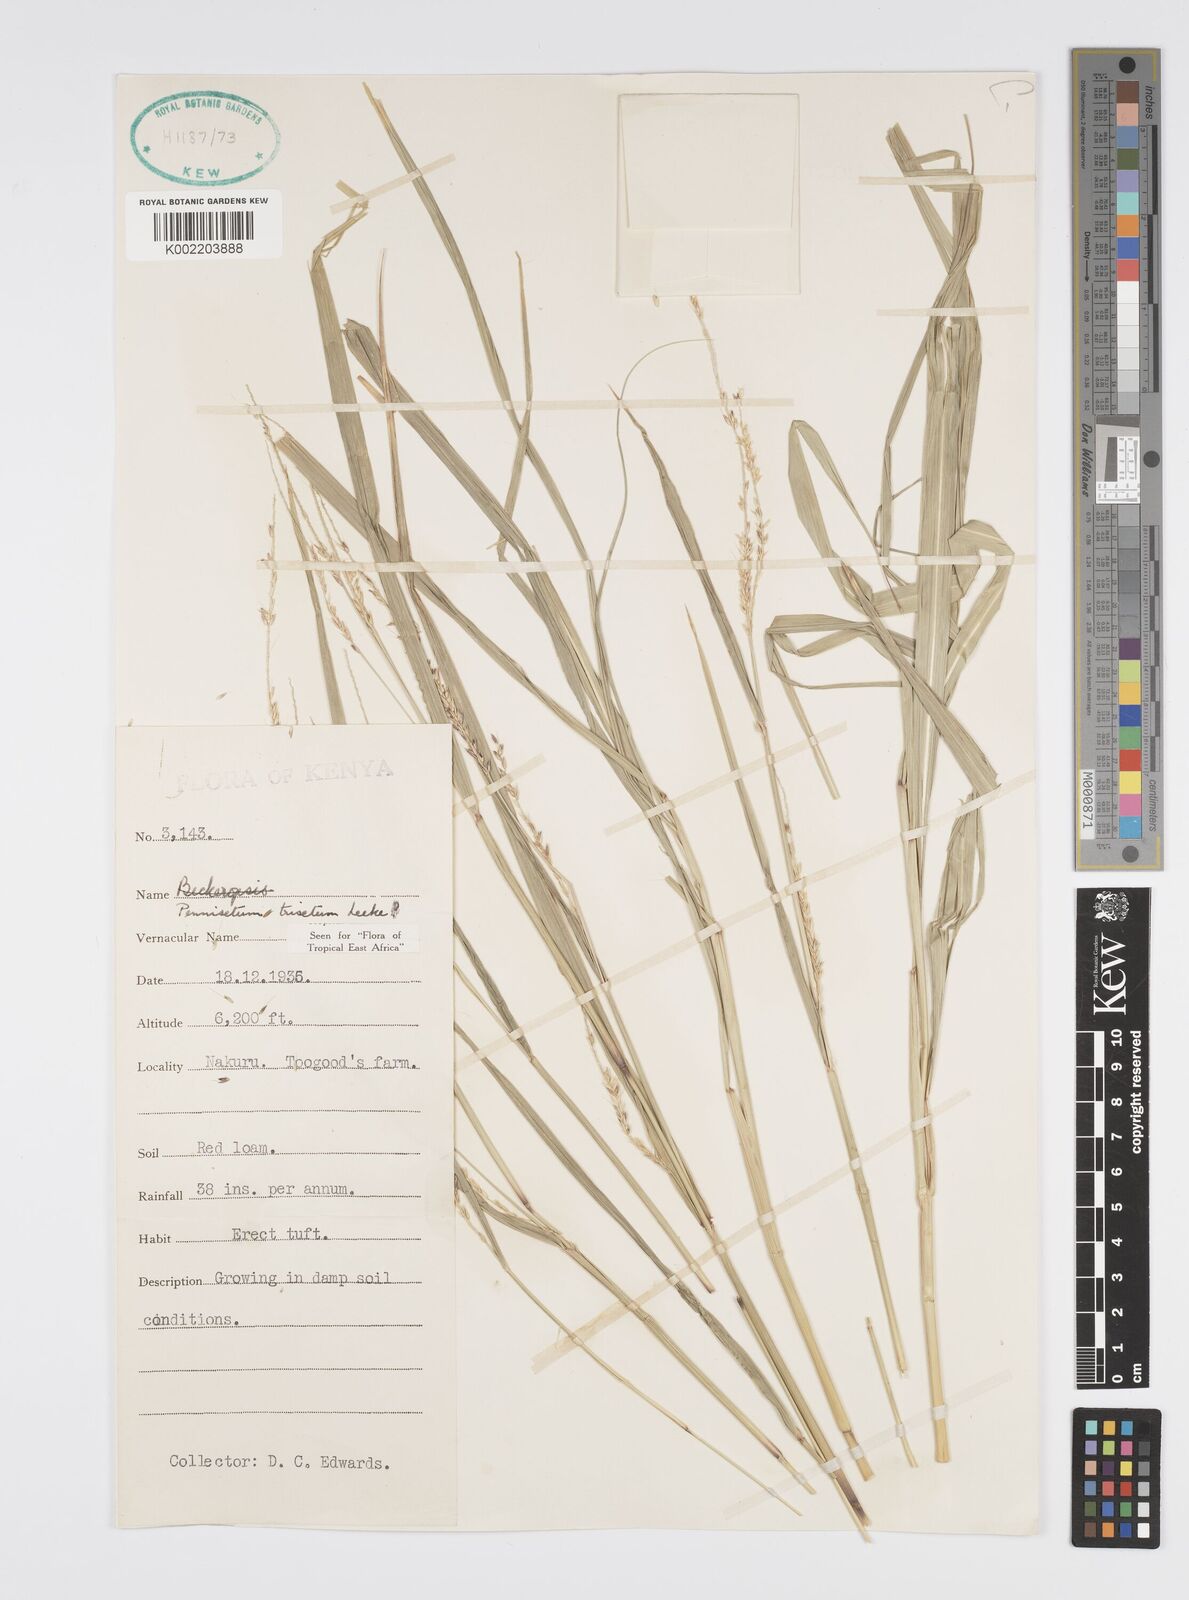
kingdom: Plantae
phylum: Tracheophyta
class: Liliopsida
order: Poales
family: Poaceae
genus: Cenchrus
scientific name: Cenchrus trisetus
